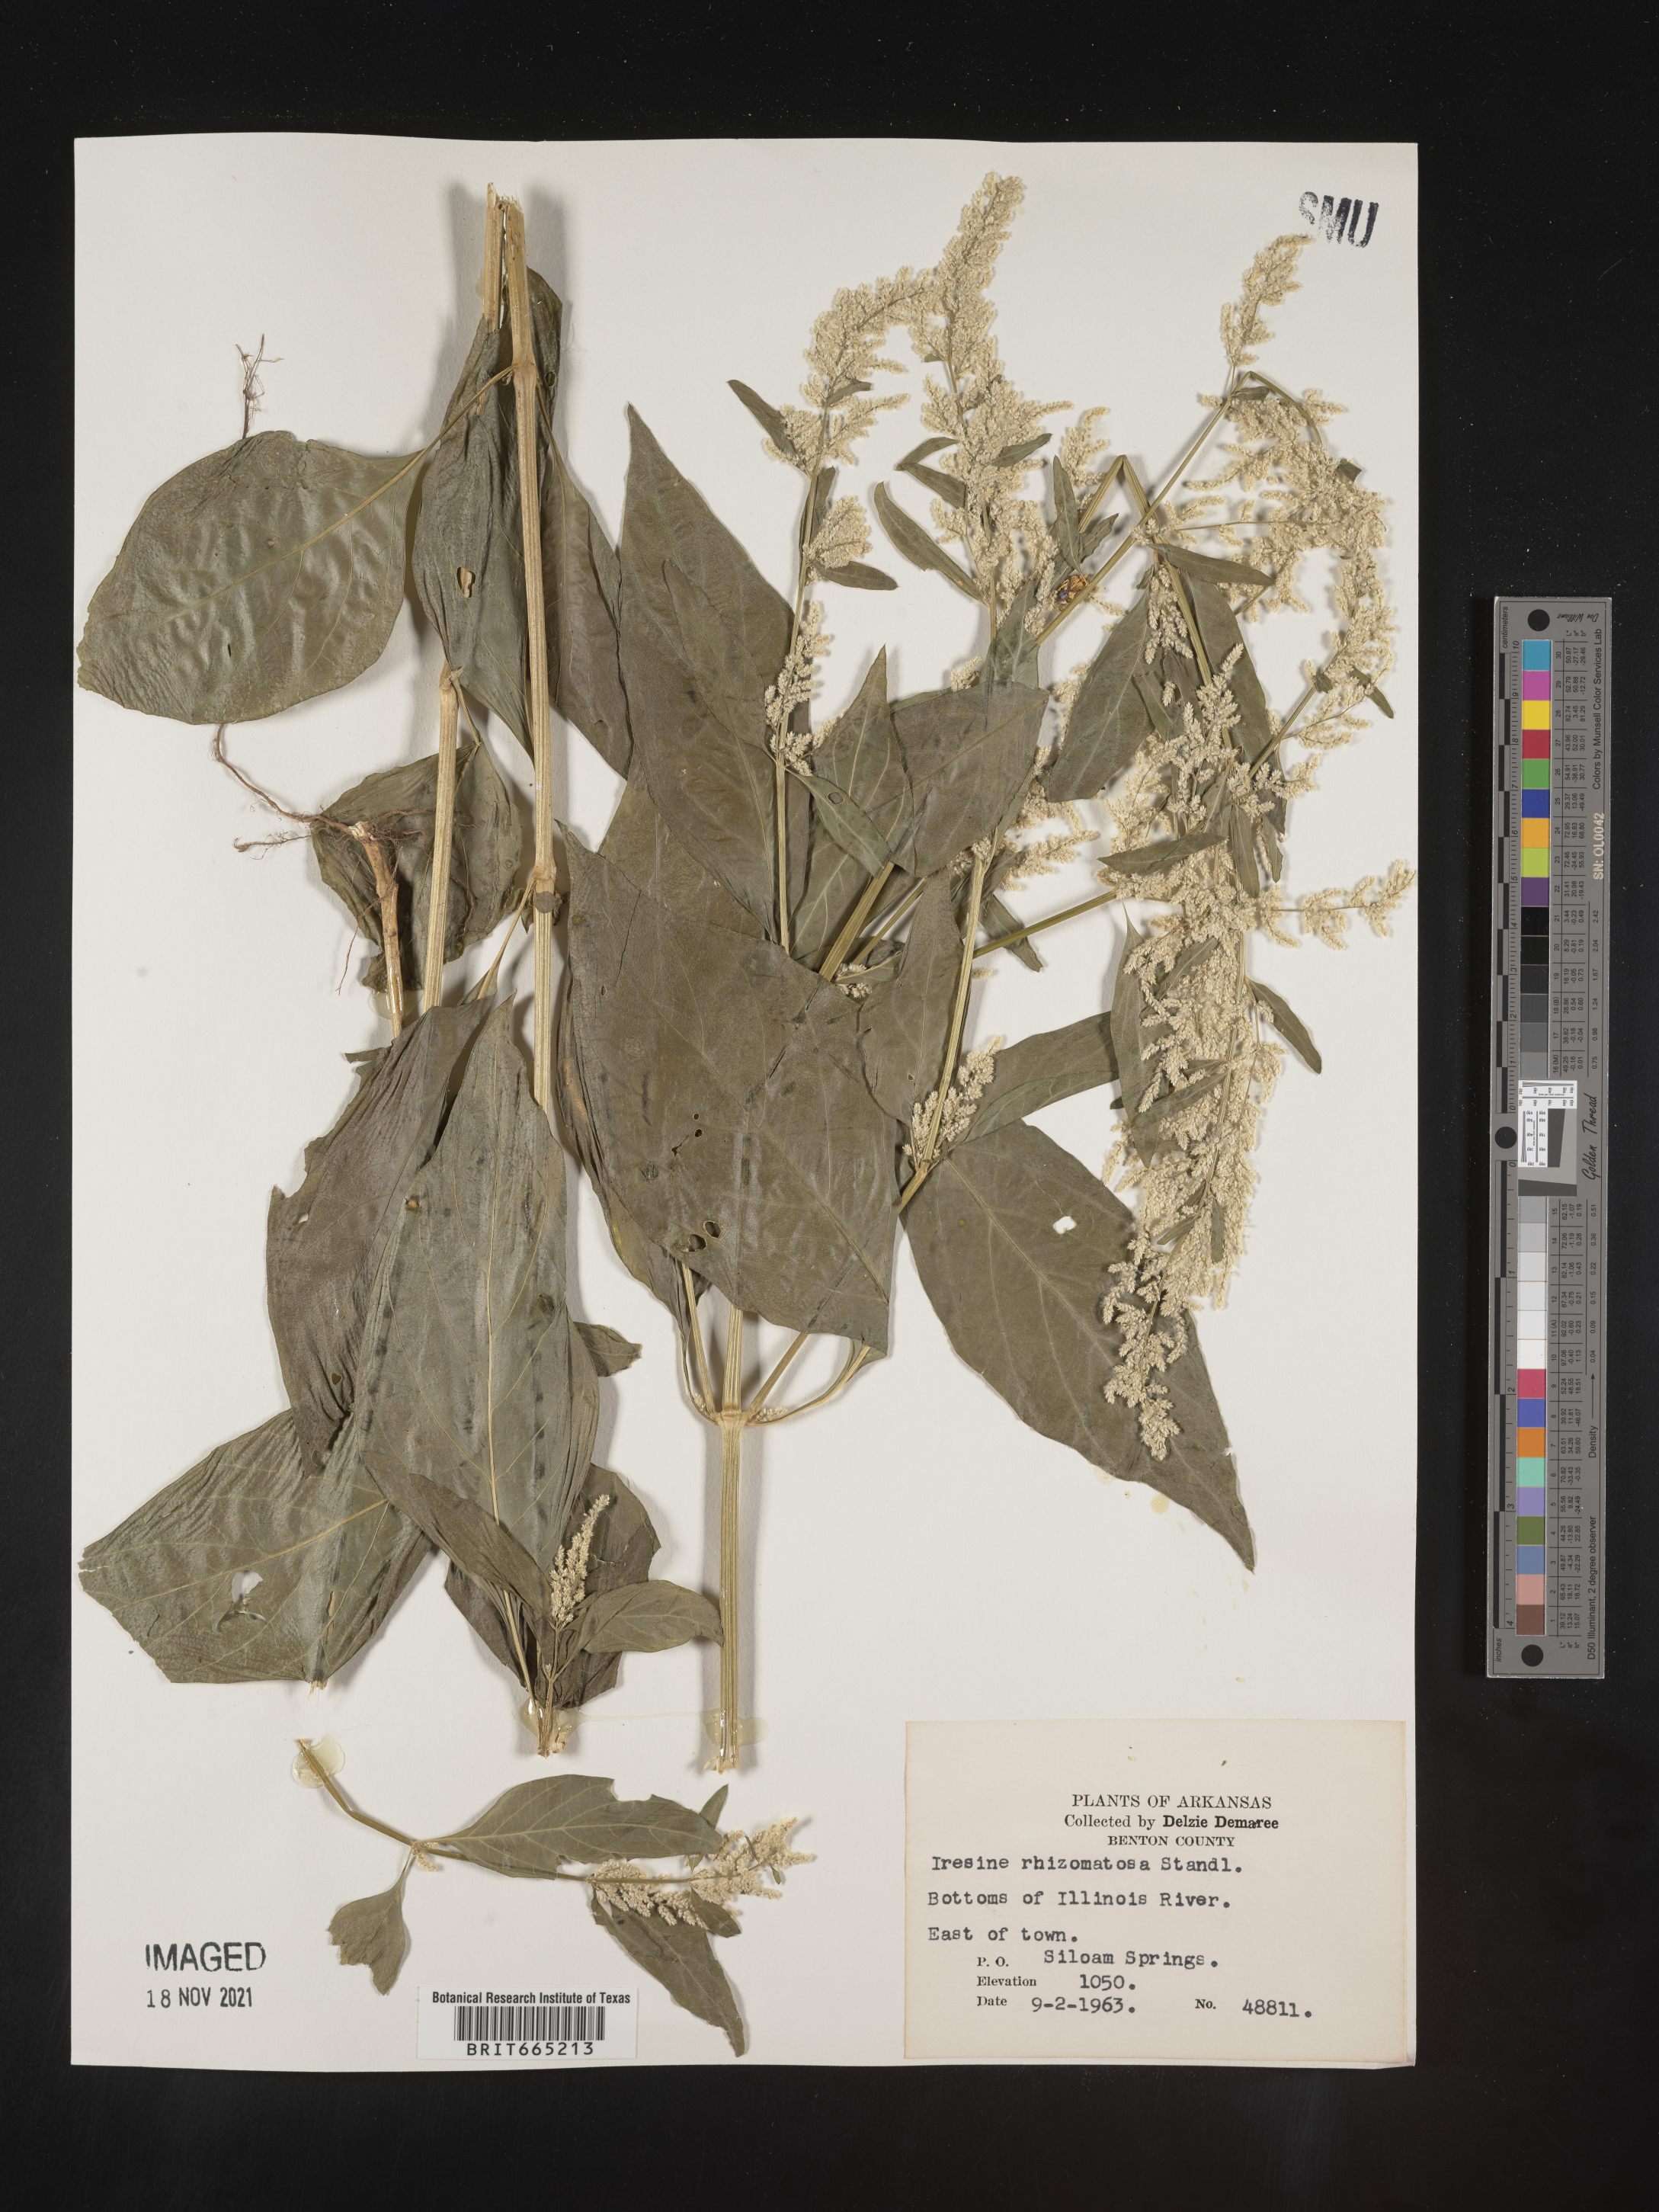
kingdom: Plantae
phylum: Tracheophyta
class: Magnoliopsida
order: Caryophyllales
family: Amaranthaceae
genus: Iresine
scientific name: Iresine rhizomatosa
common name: Juda's-bush
